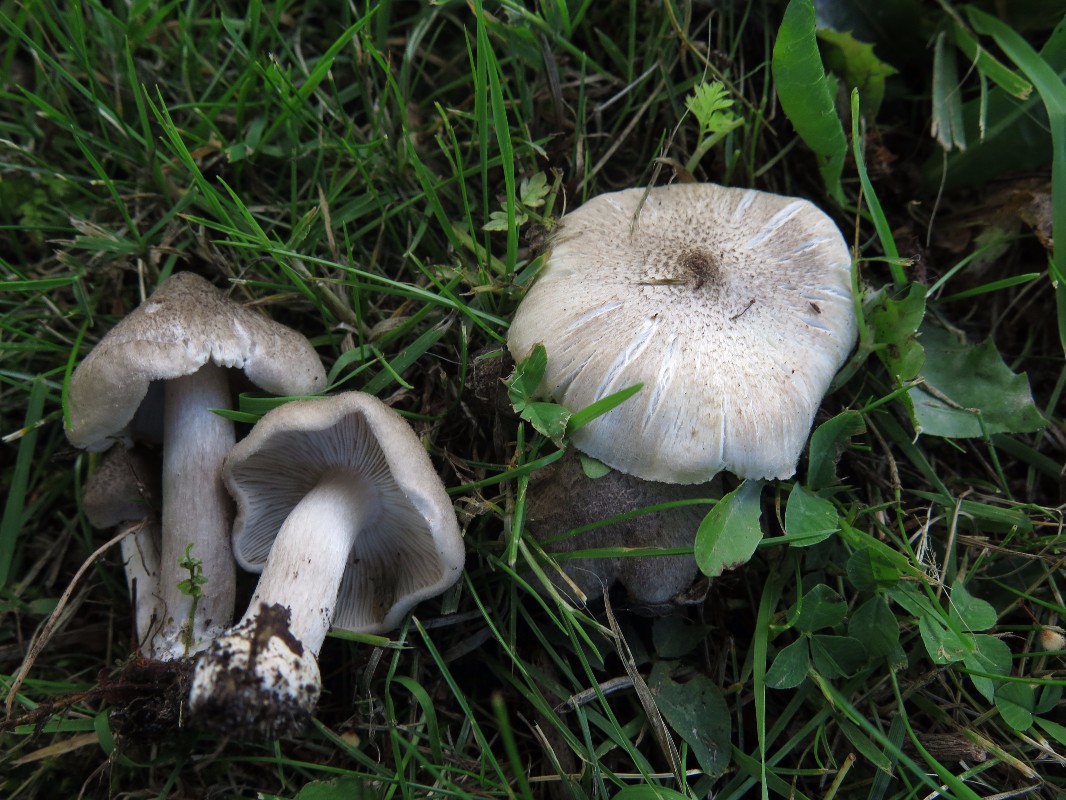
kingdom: Fungi
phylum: Basidiomycota
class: Agaricomycetes
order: Agaricales
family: Tricholomataceae
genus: Tricholoma
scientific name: Tricholoma argyraceum
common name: spids ridderhat
